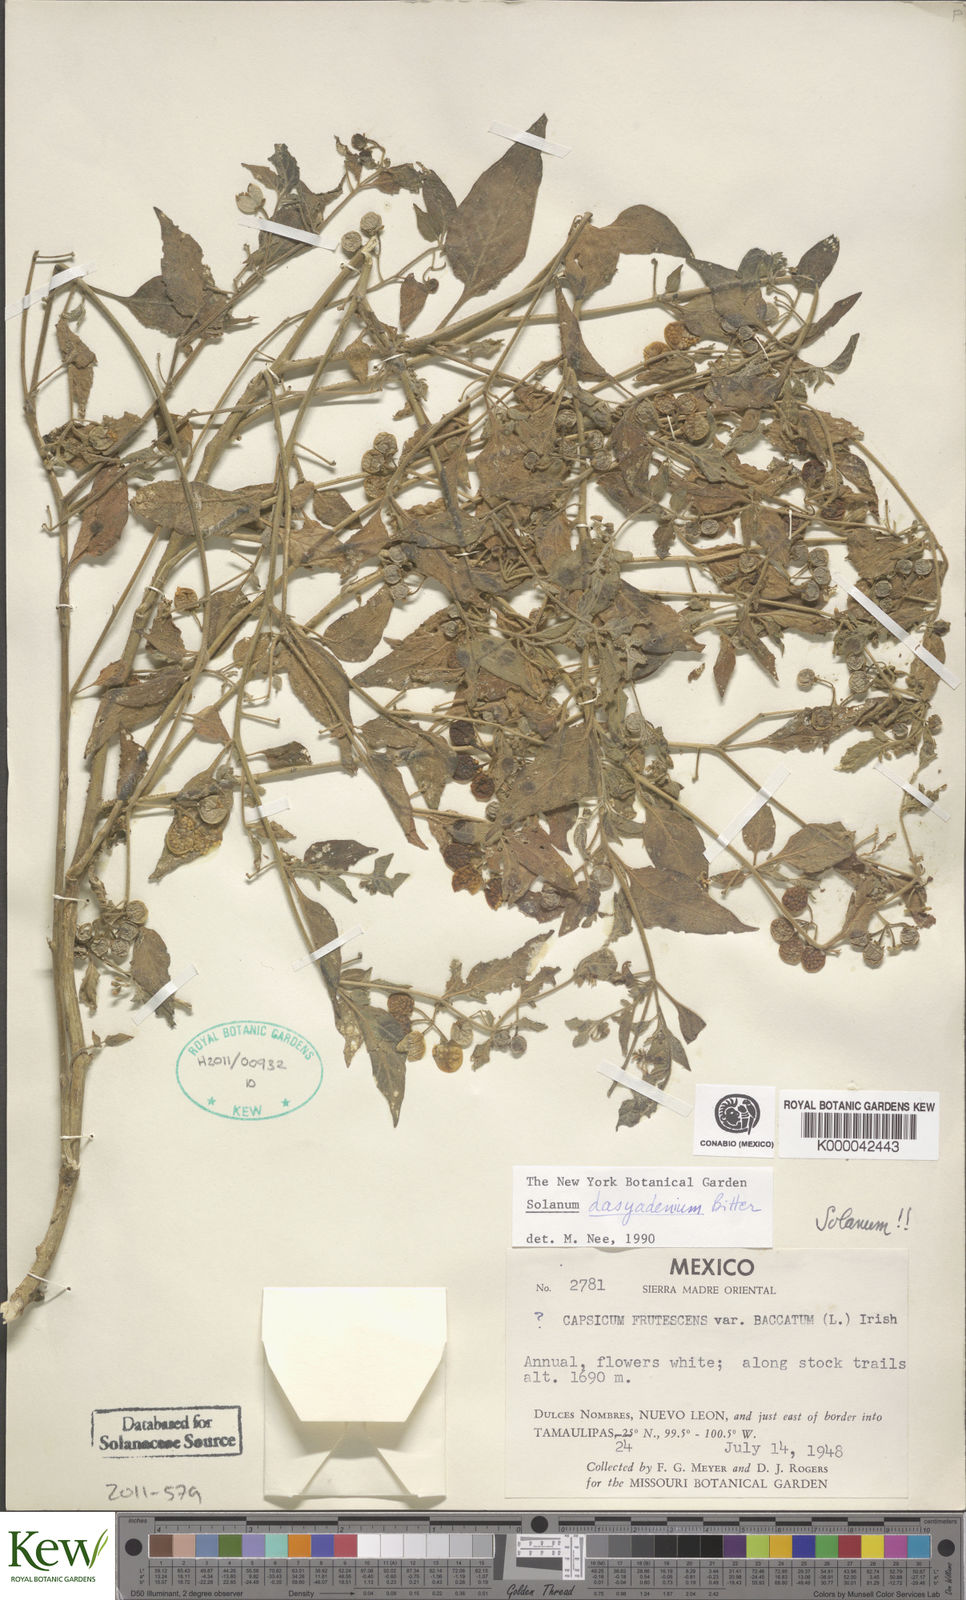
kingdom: Plantae
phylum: Tracheophyta
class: Magnoliopsida
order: Solanales
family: Solanaceae
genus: Solanum
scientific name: Solanum pruinosum
